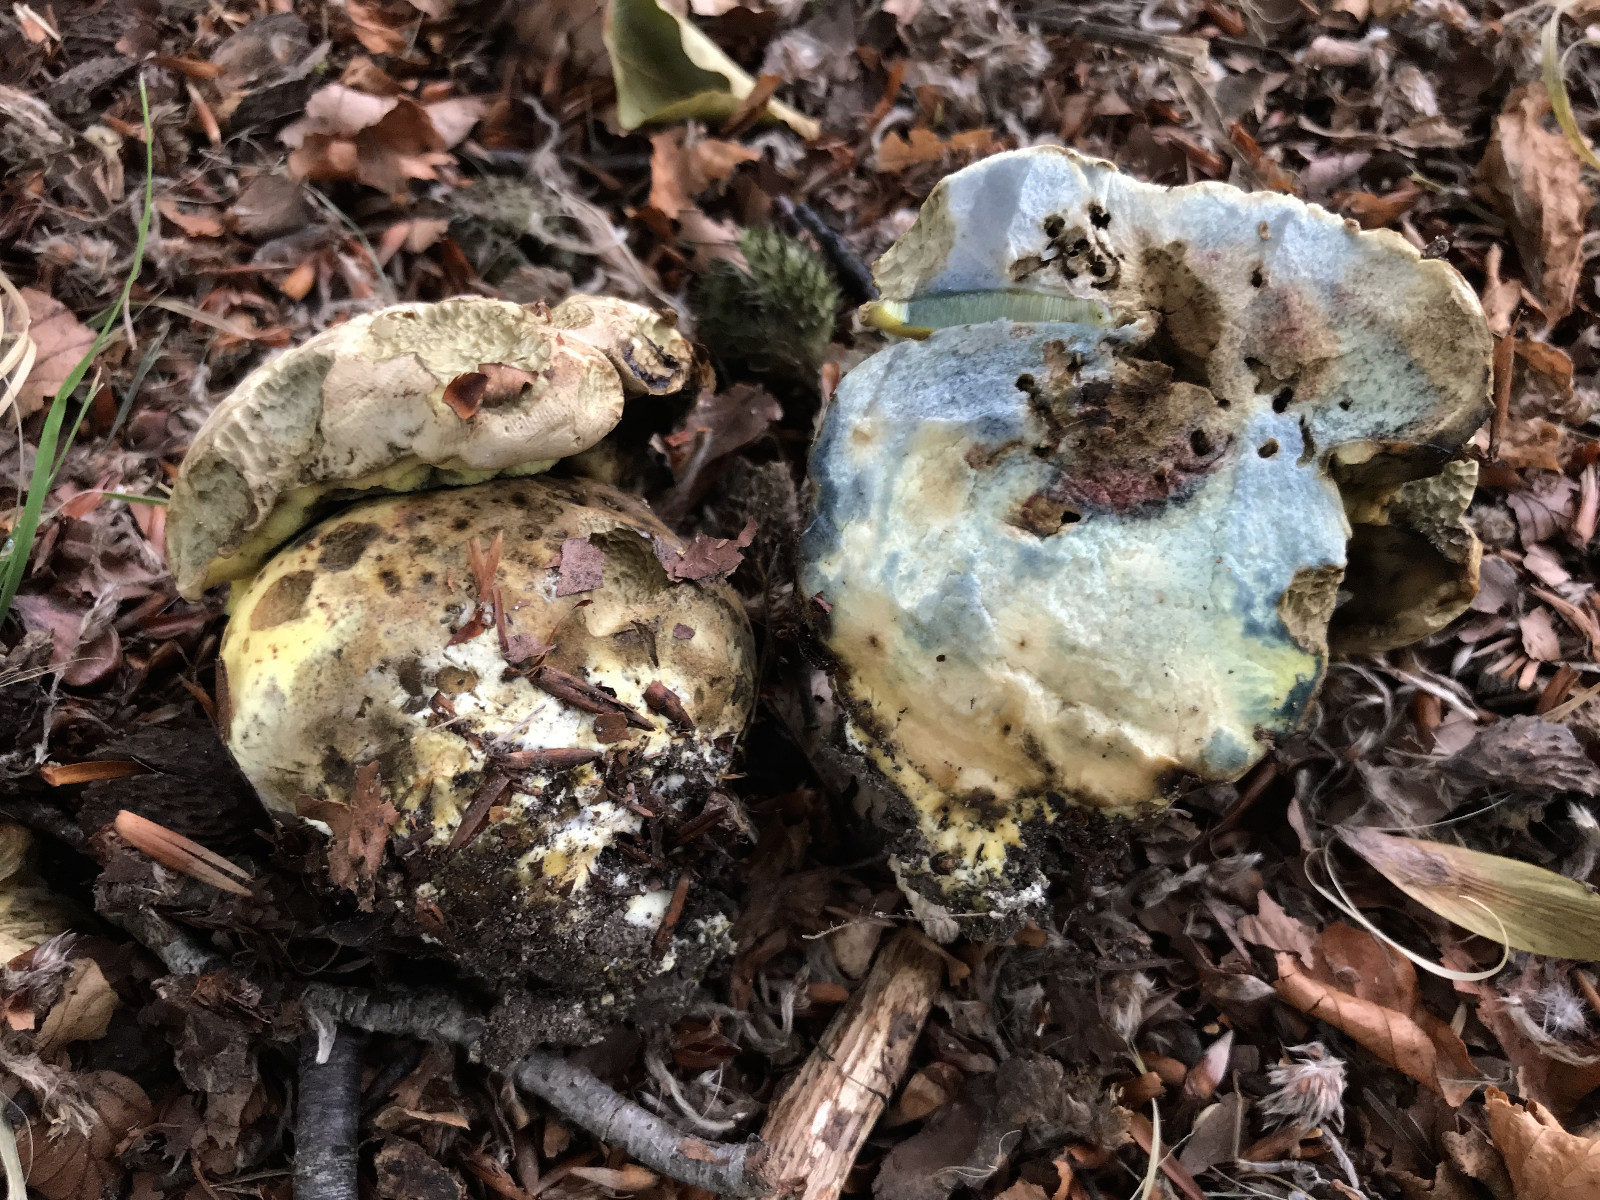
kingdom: Fungi
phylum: Basidiomycota
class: Agaricomycetes
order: Boletales
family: Boletaceae
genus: Caloboletus
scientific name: Caloboletus radicans
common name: rod-rørhat
